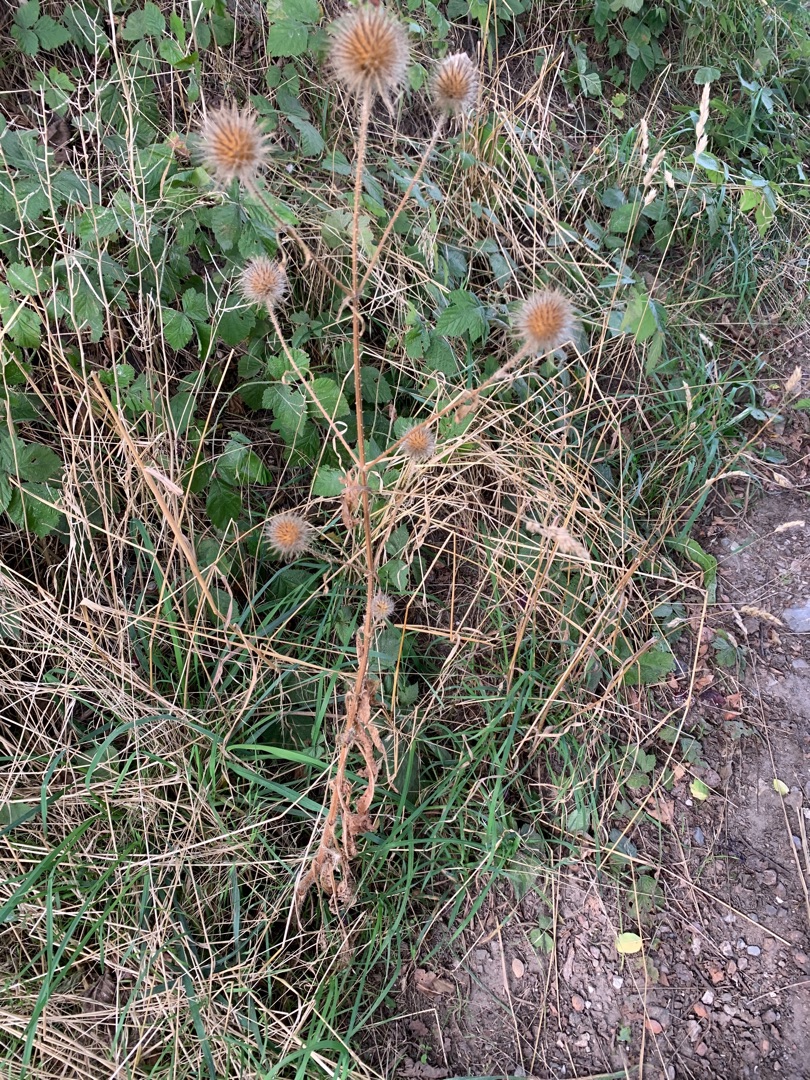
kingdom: Plantae
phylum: Tracheophyta
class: Magnoliopsida
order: Dipsacales
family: Caprifoliaceae
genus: Dipsacus
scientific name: Dipsacus strigosus
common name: Pindsvin-kartebolle
